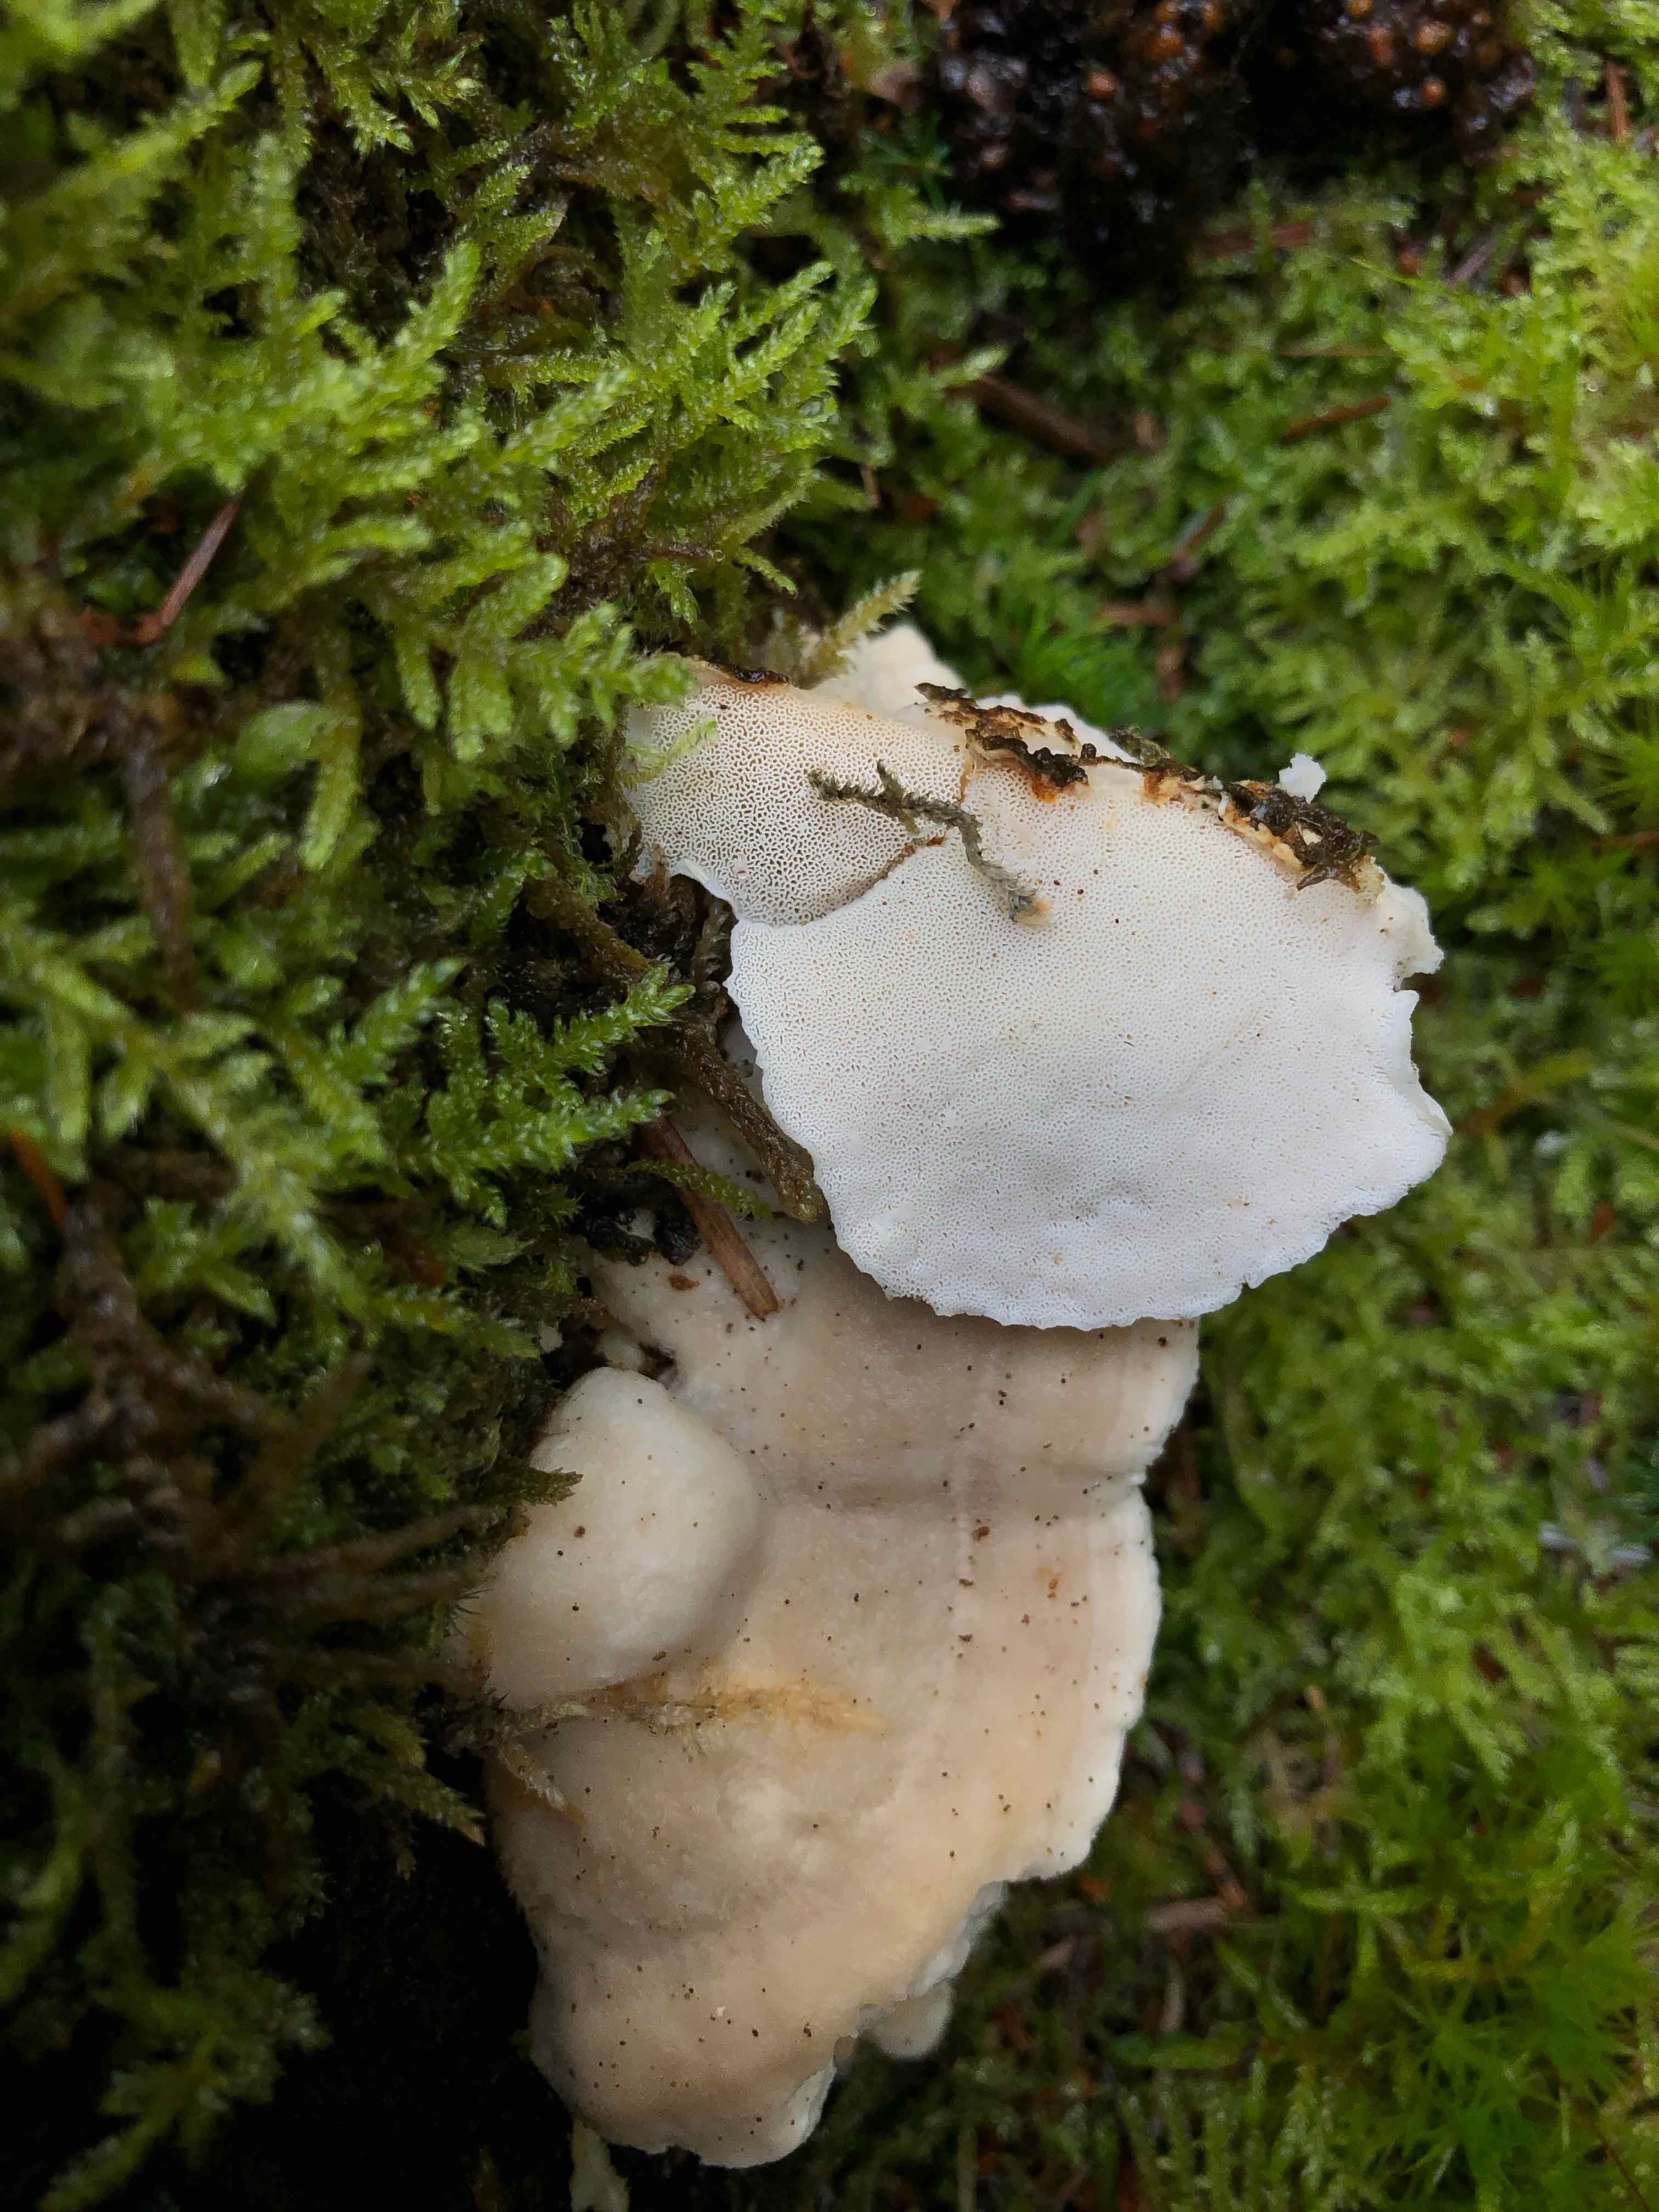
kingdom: Fungi
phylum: Basidiomycota
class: Agaricomycetes
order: Polyporales
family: Dacryobolaceae
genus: Postia
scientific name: Postia
